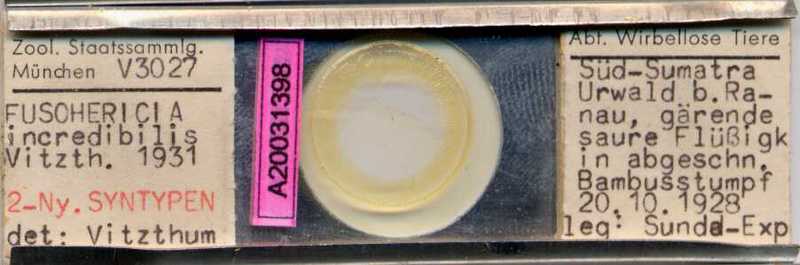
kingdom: Animalia
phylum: Arthropoda
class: Arachnida
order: Sarcoptiformes
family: Algophagidae
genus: Fusohericia
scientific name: Fusohericia incredibilis
